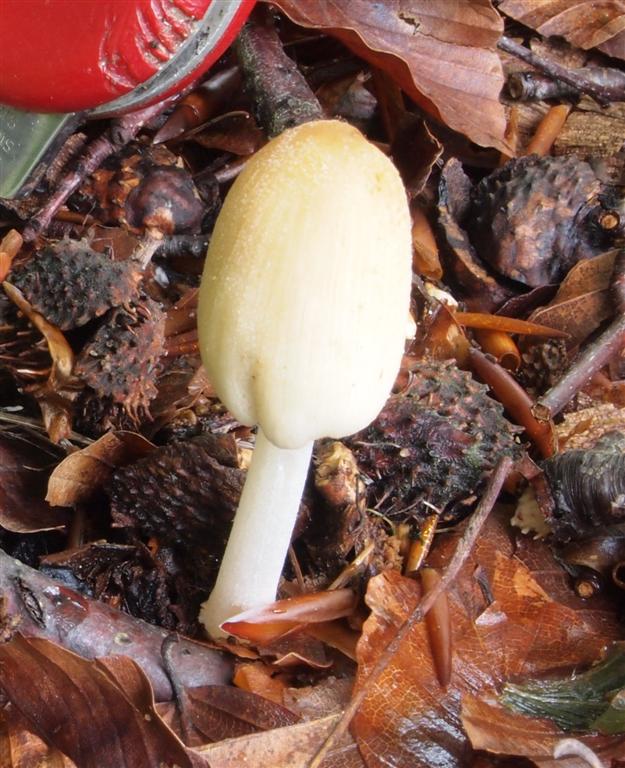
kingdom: Fungi
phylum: Basidiomycota
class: Agaricomycetes
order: Agaricales
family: Psathyrellaceae
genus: Coprinellus
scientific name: Coprinellus xanthothrix
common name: gultrådet blækhat
